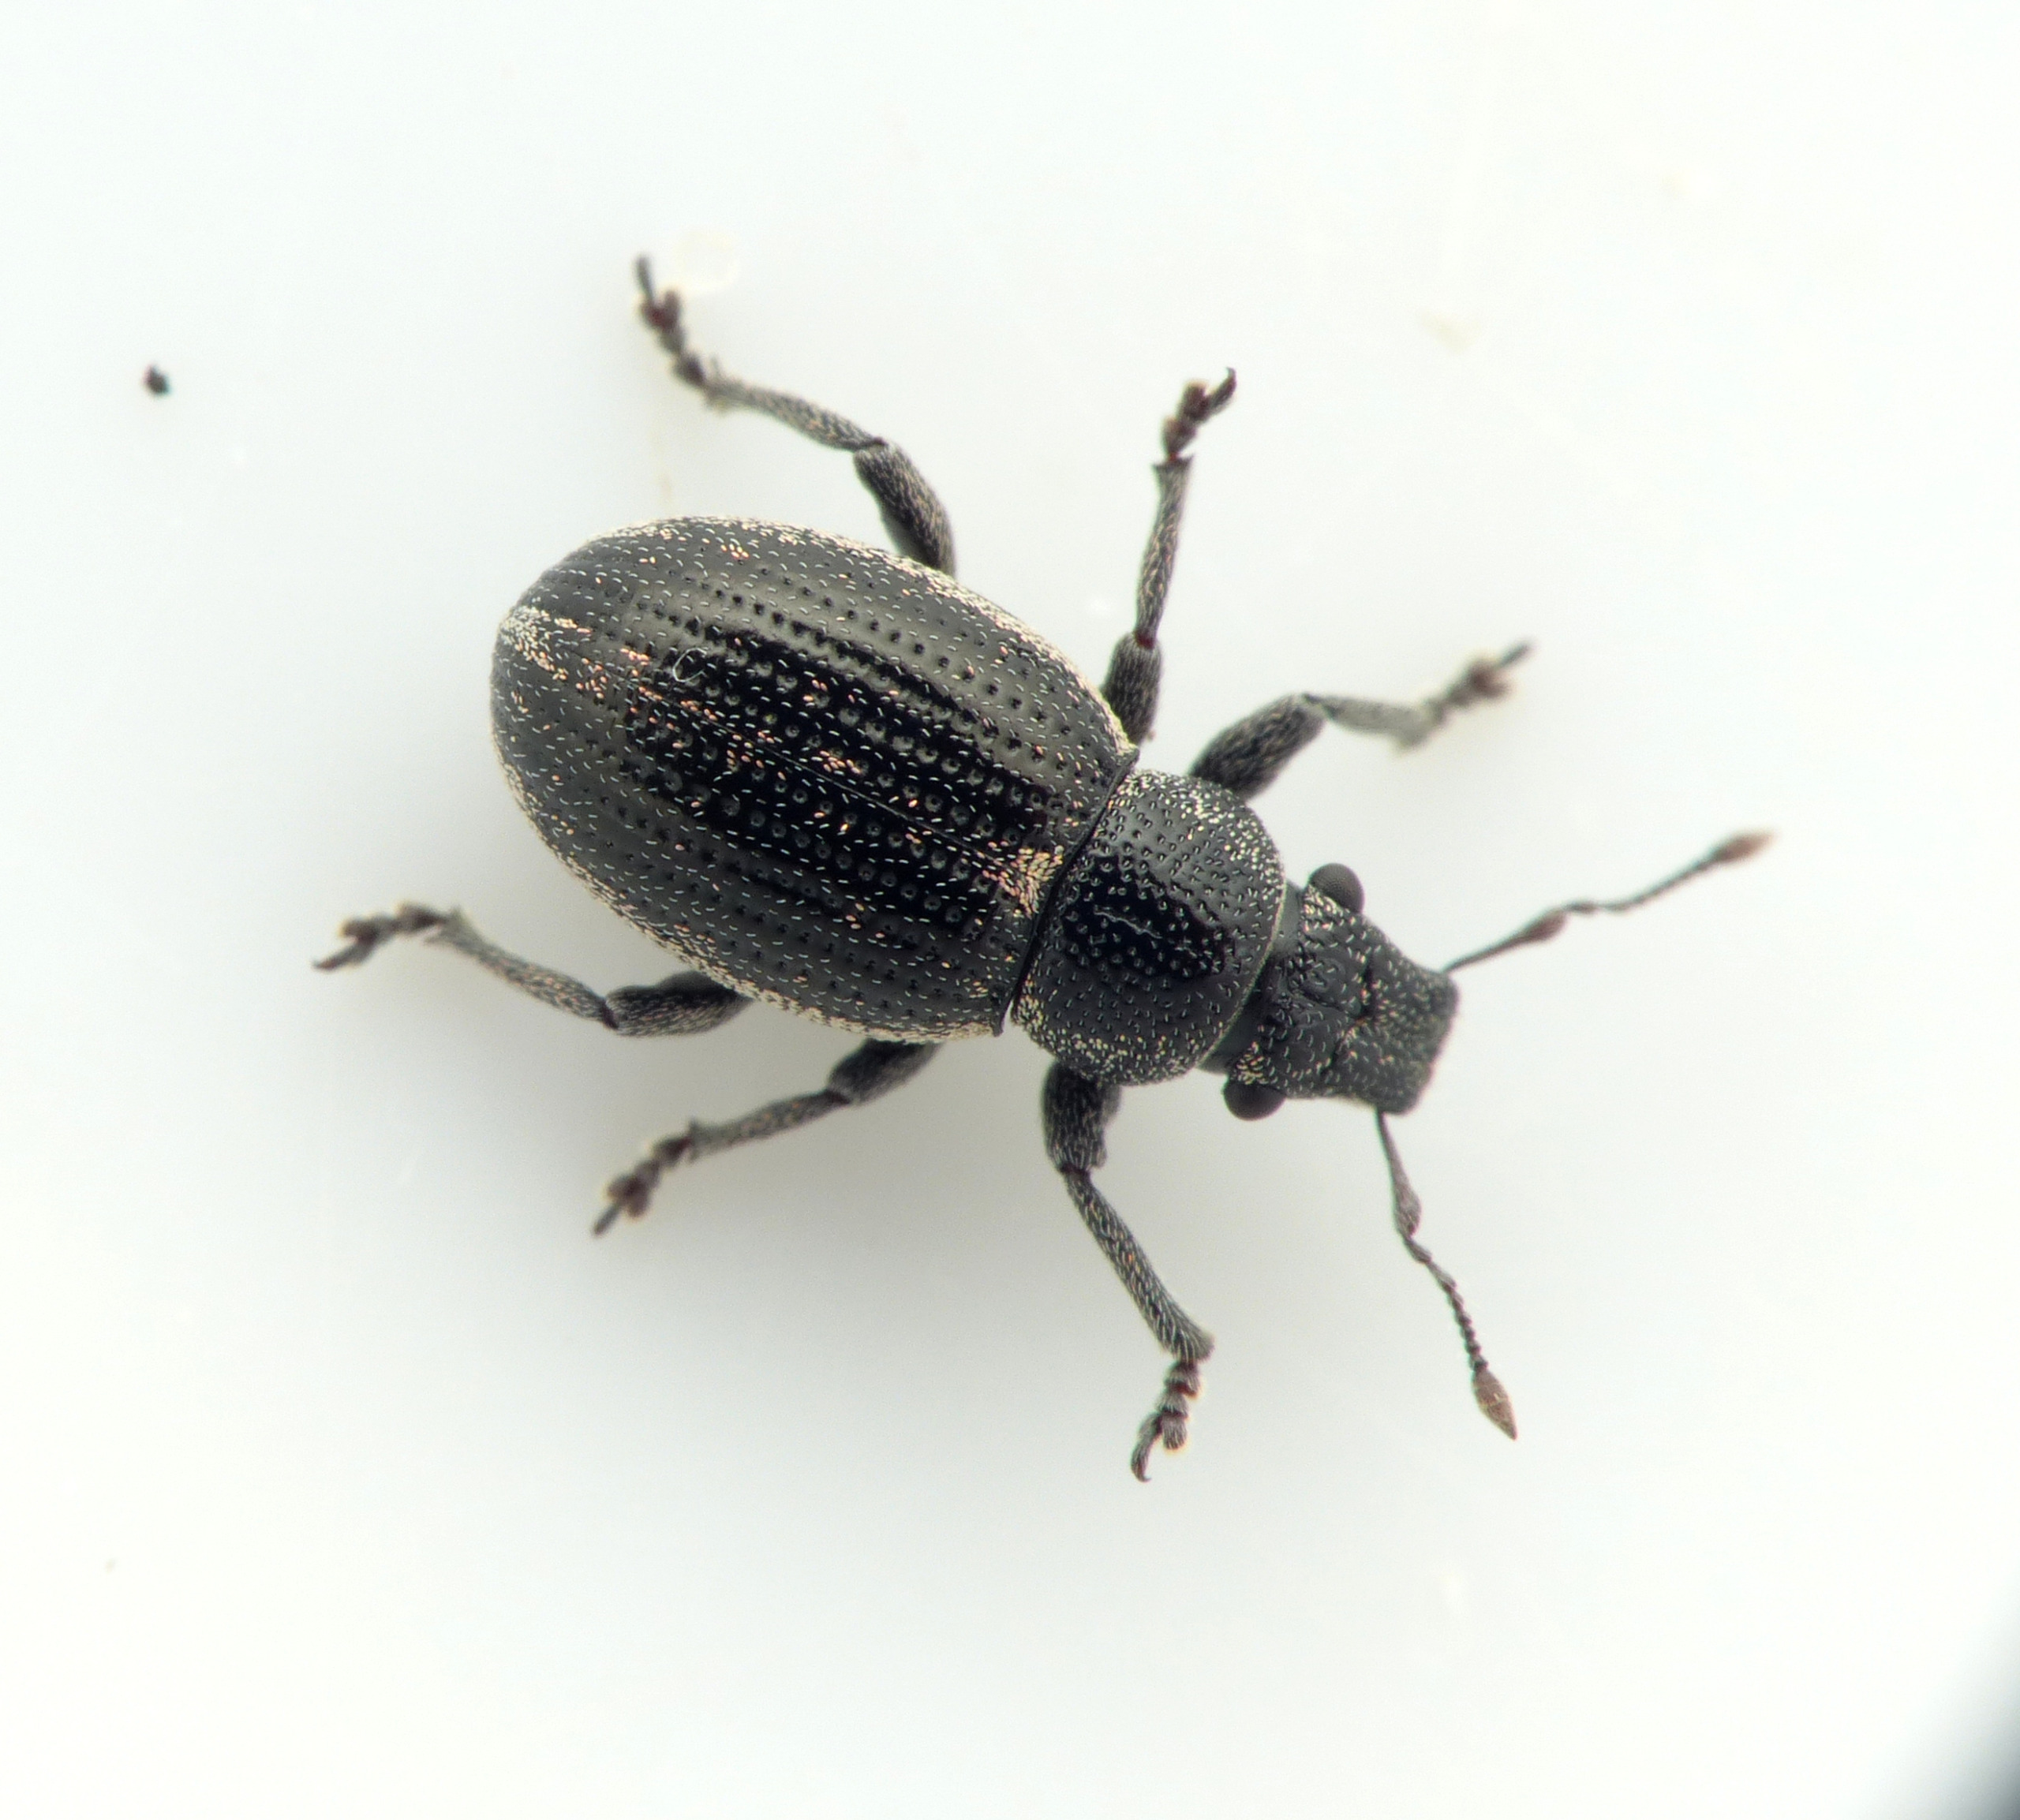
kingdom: Animalia
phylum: Arthropoda
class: Insecta
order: Coleoptera
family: Curculionidae
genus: Strophosoma
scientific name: Strophosoma sus
